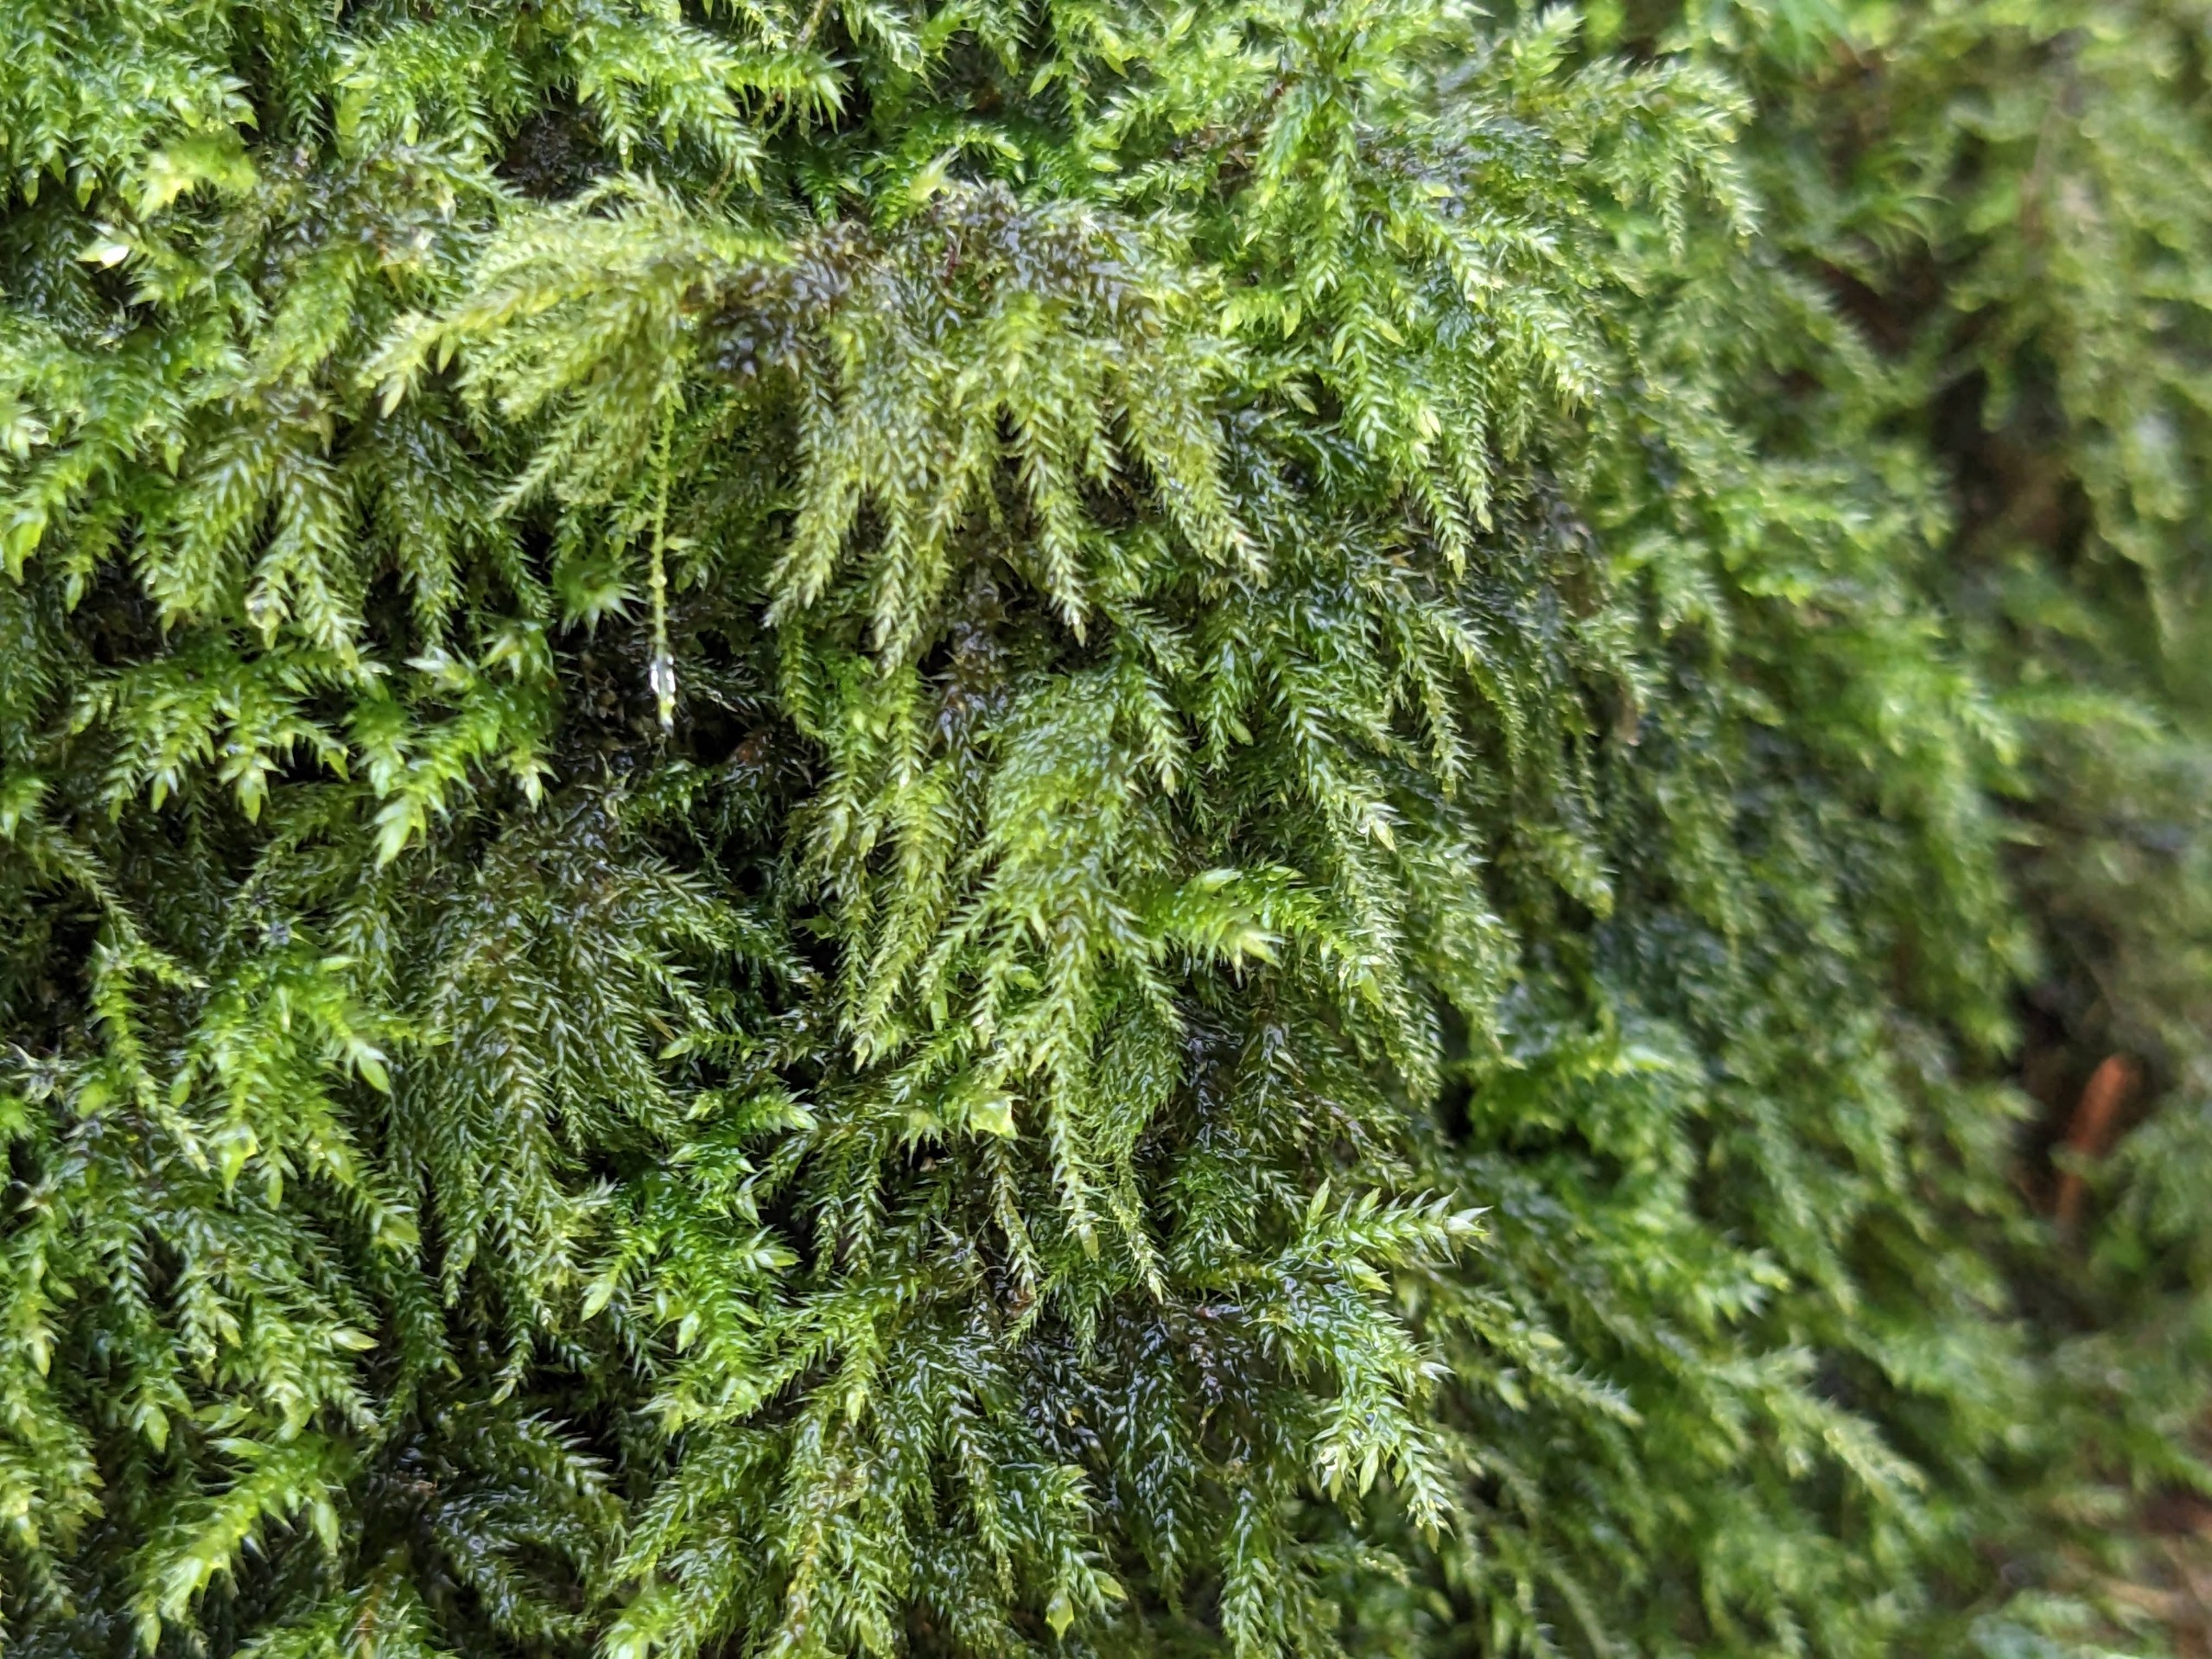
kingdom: Plantae
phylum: Bryophyta
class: Bryopsida
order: Hypnales
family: Lembophyllaceae
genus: Pseudisothecium
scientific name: Pseudisothecium myosuroides
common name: Slank stammemos
